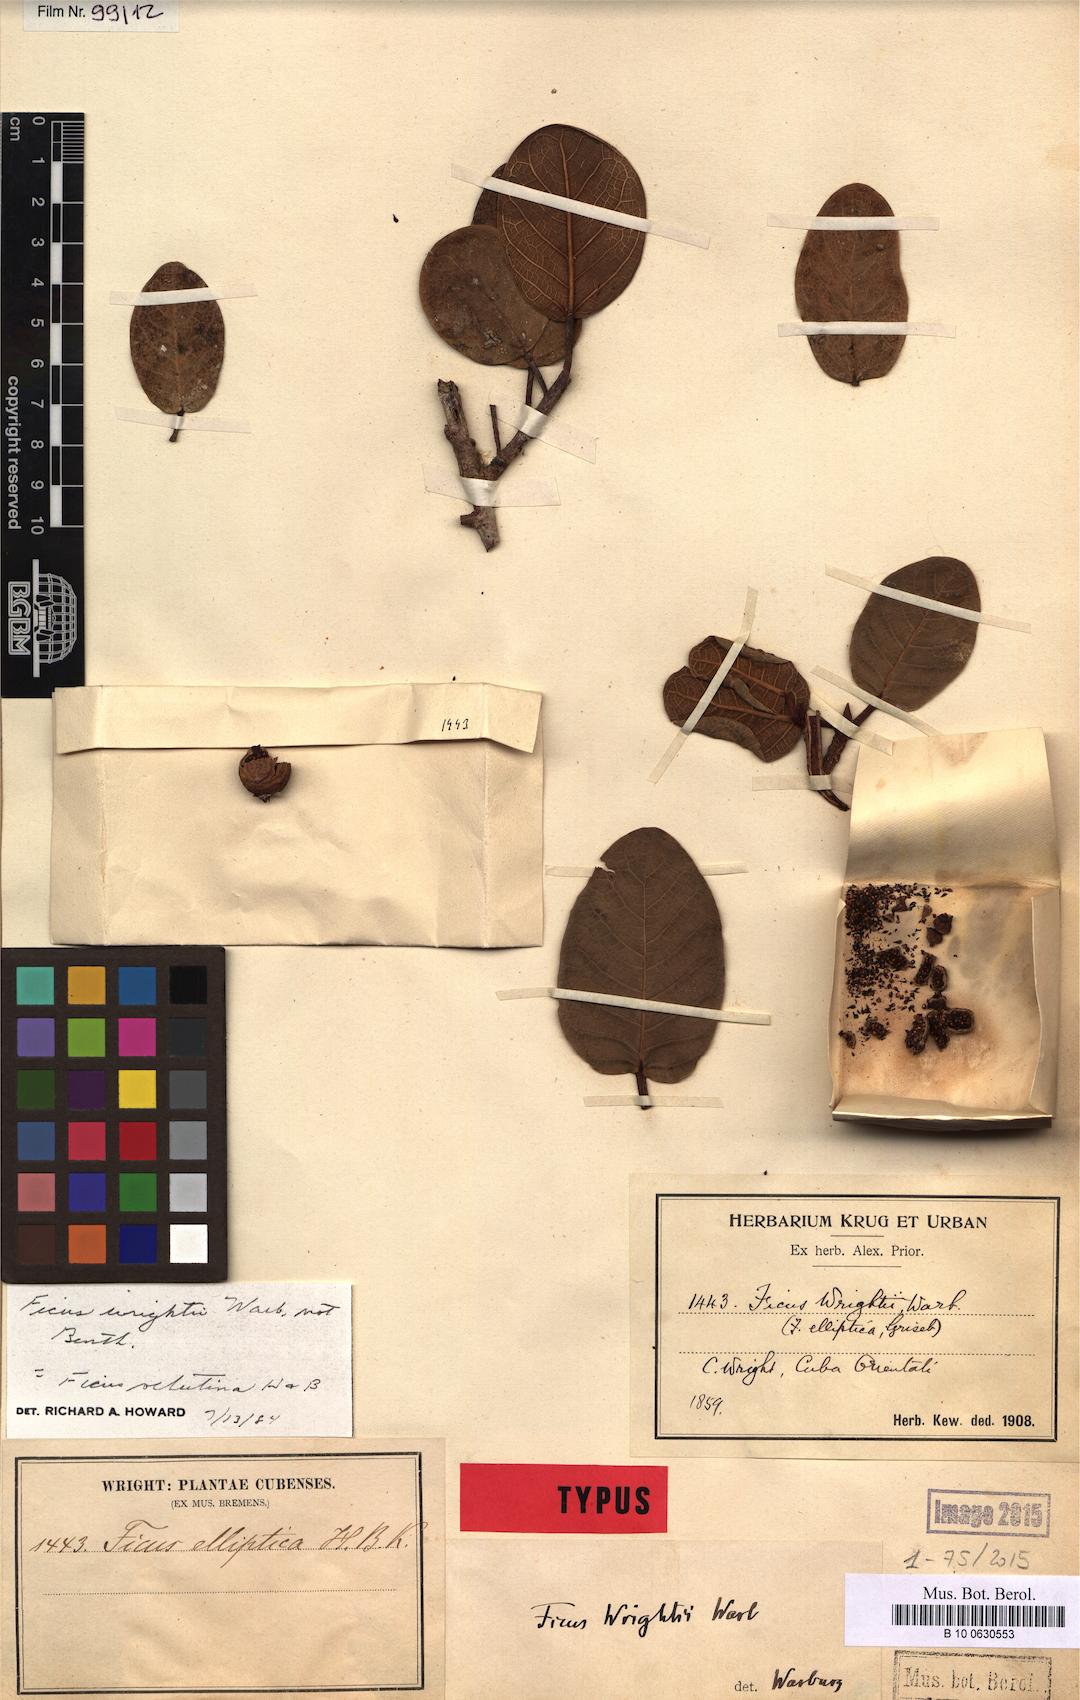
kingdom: Plantae
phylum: Tracheophyta
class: Magnoliopsida
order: Rosales
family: Moraceae
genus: Ficus
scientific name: Ficus trigonata
